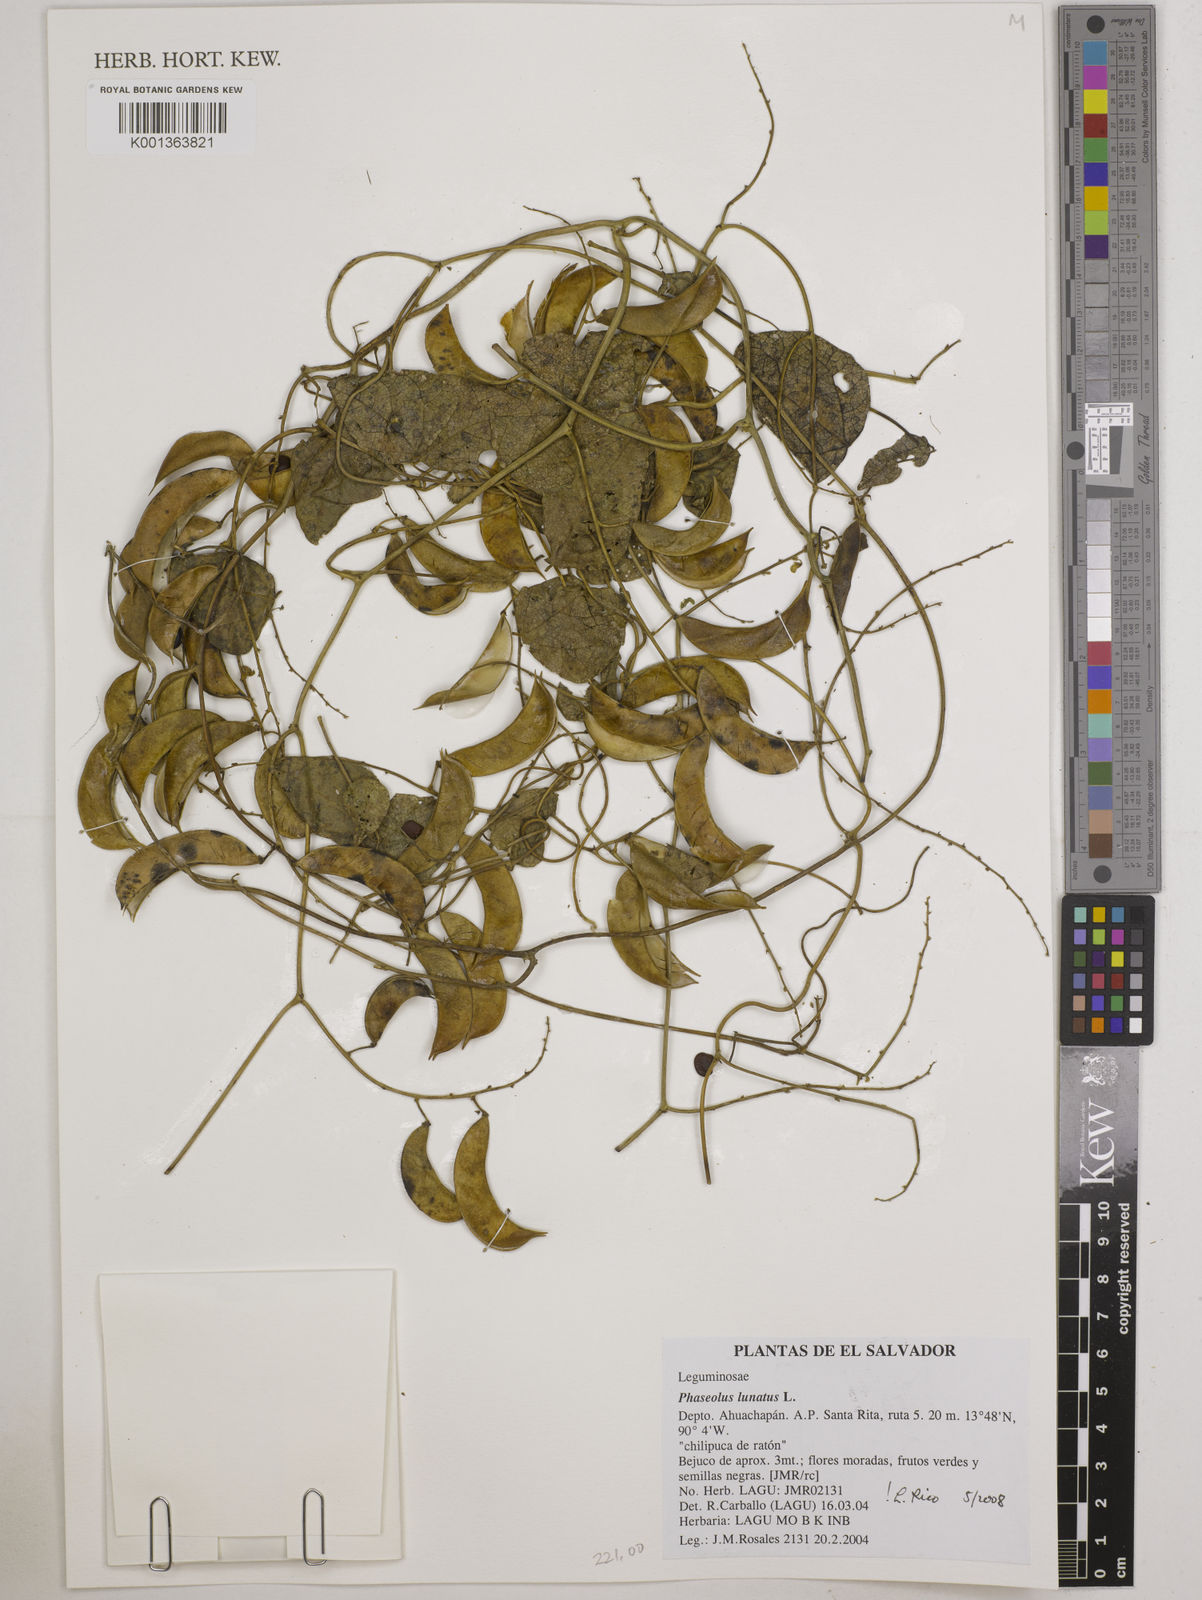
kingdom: Plantae
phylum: Tracheophyta
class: Magnoliopsida
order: Fabales
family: Fabaceae
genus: Phaseolus
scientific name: Phaseolus lunatus
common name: Sieva bean
